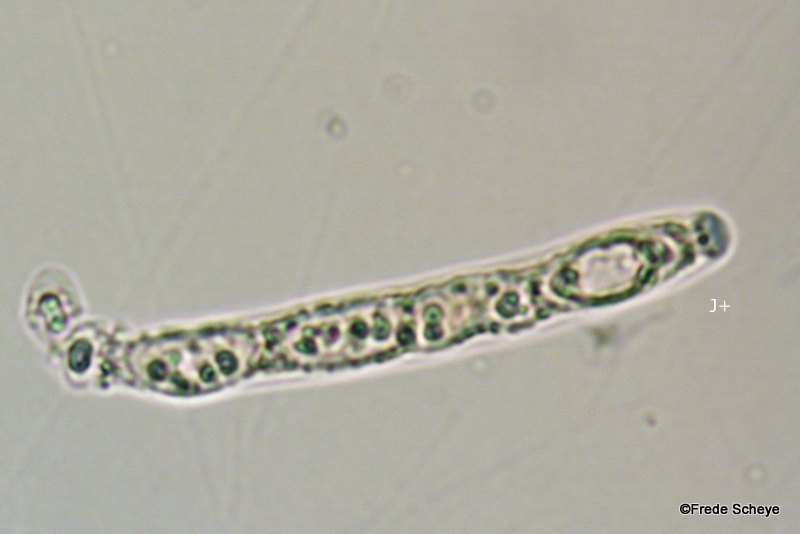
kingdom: Fungi
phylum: Ascomycota
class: Sordariomycetes
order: Xylariales
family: Hypoxylaceae
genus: Hypoxylon
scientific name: Hypoxylon petriniae
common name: nedsænket kulbær
